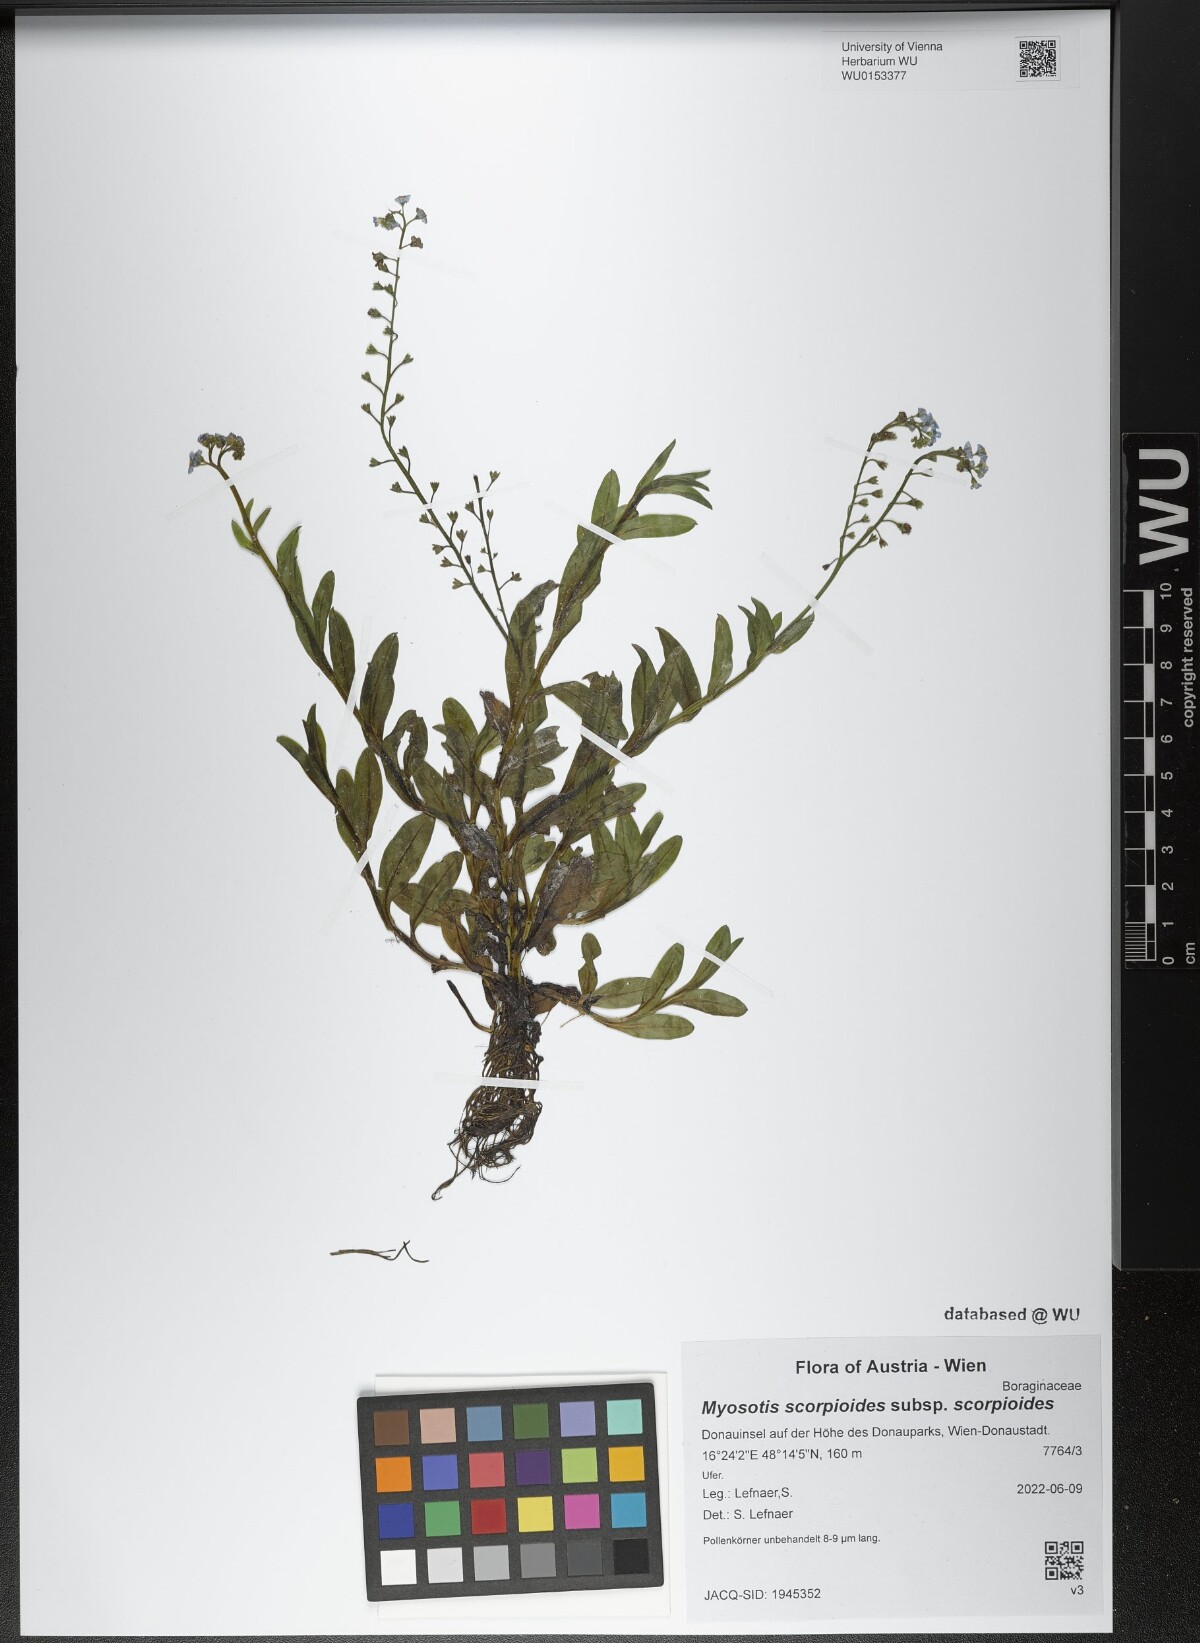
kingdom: Plantae
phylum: Tracheophyta
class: Magnoliopsida
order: Boraginales
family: Boraginaceae
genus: Myosotis
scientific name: Myosotis scorpioides
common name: Water forget-me-not
